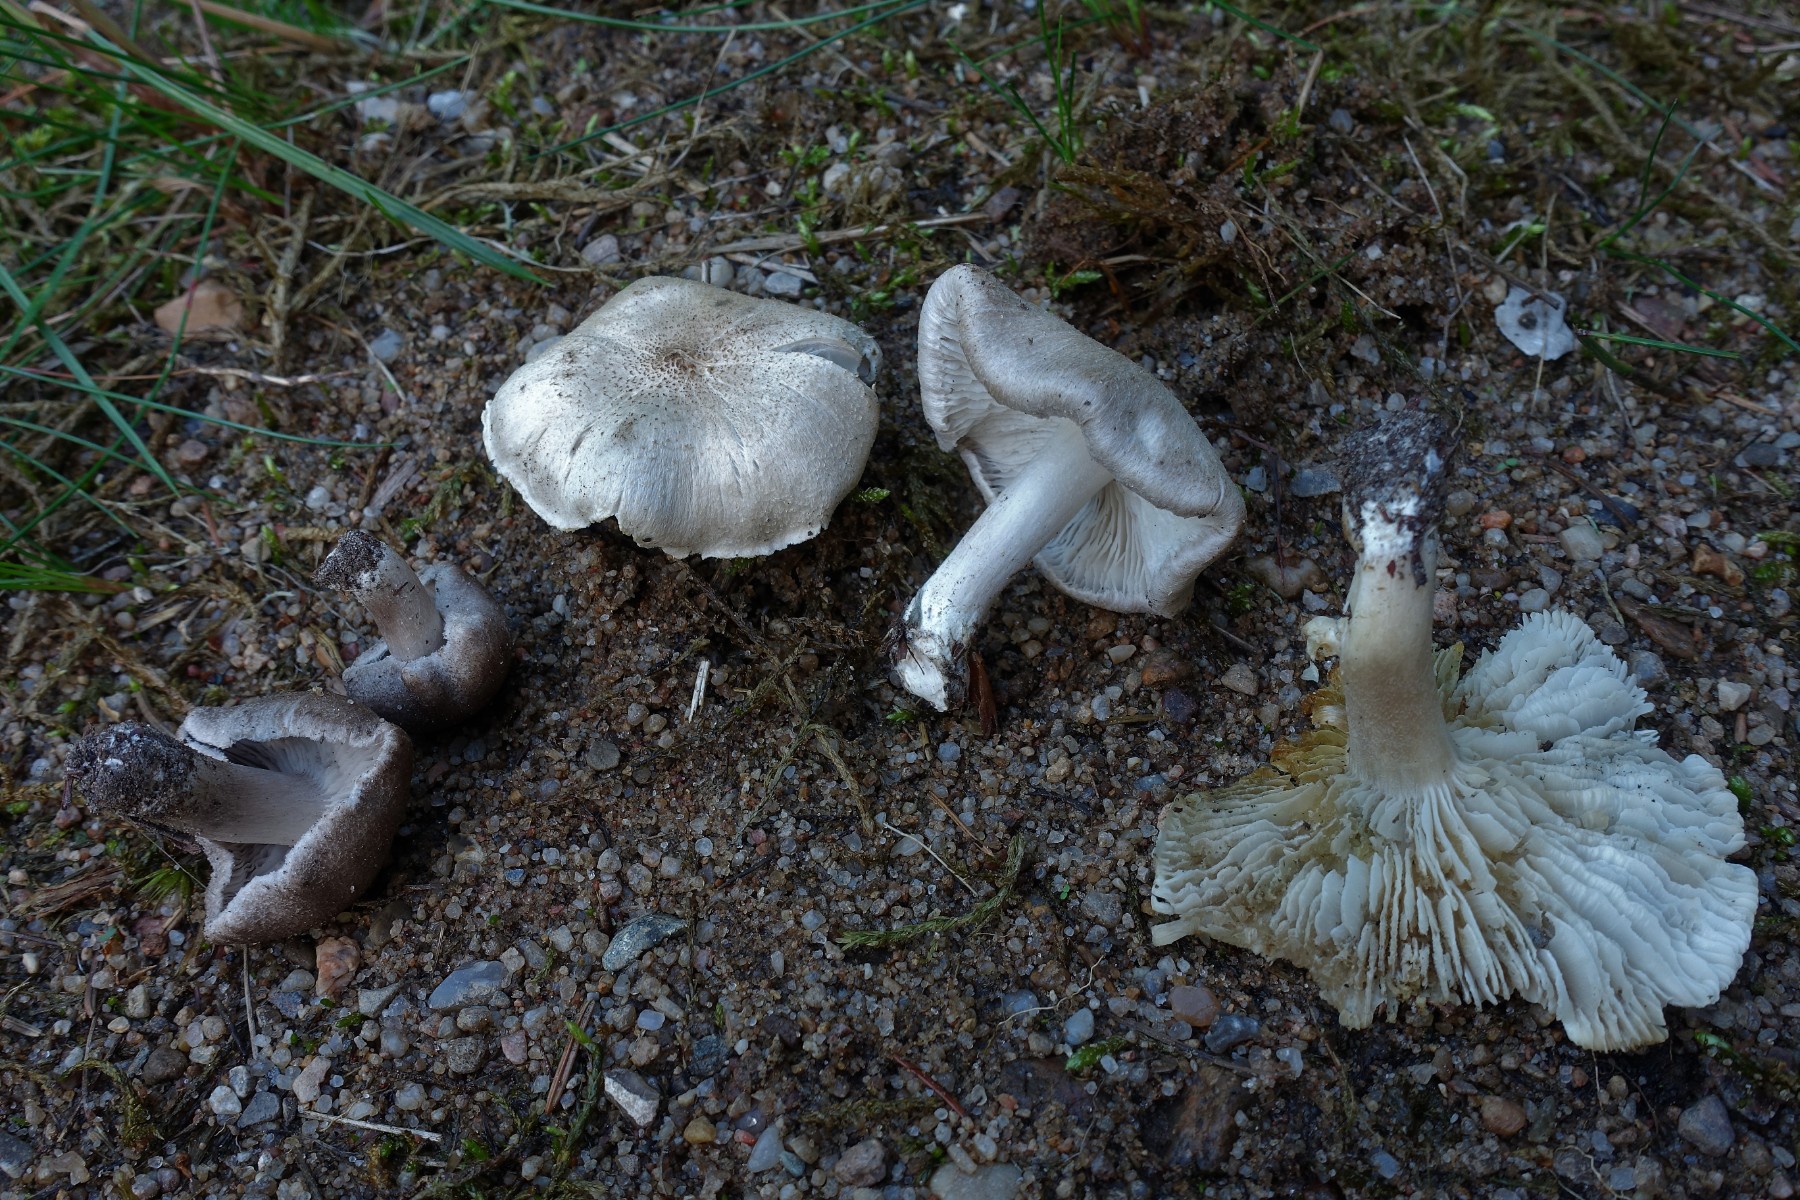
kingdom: Fungi
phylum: Basidiomycota
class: Agaricomycetes
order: Agaricales
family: Tricholomataceae
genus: Tricholoma
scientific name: Tricholoma scalpturatum
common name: gulplettet ridderhat
